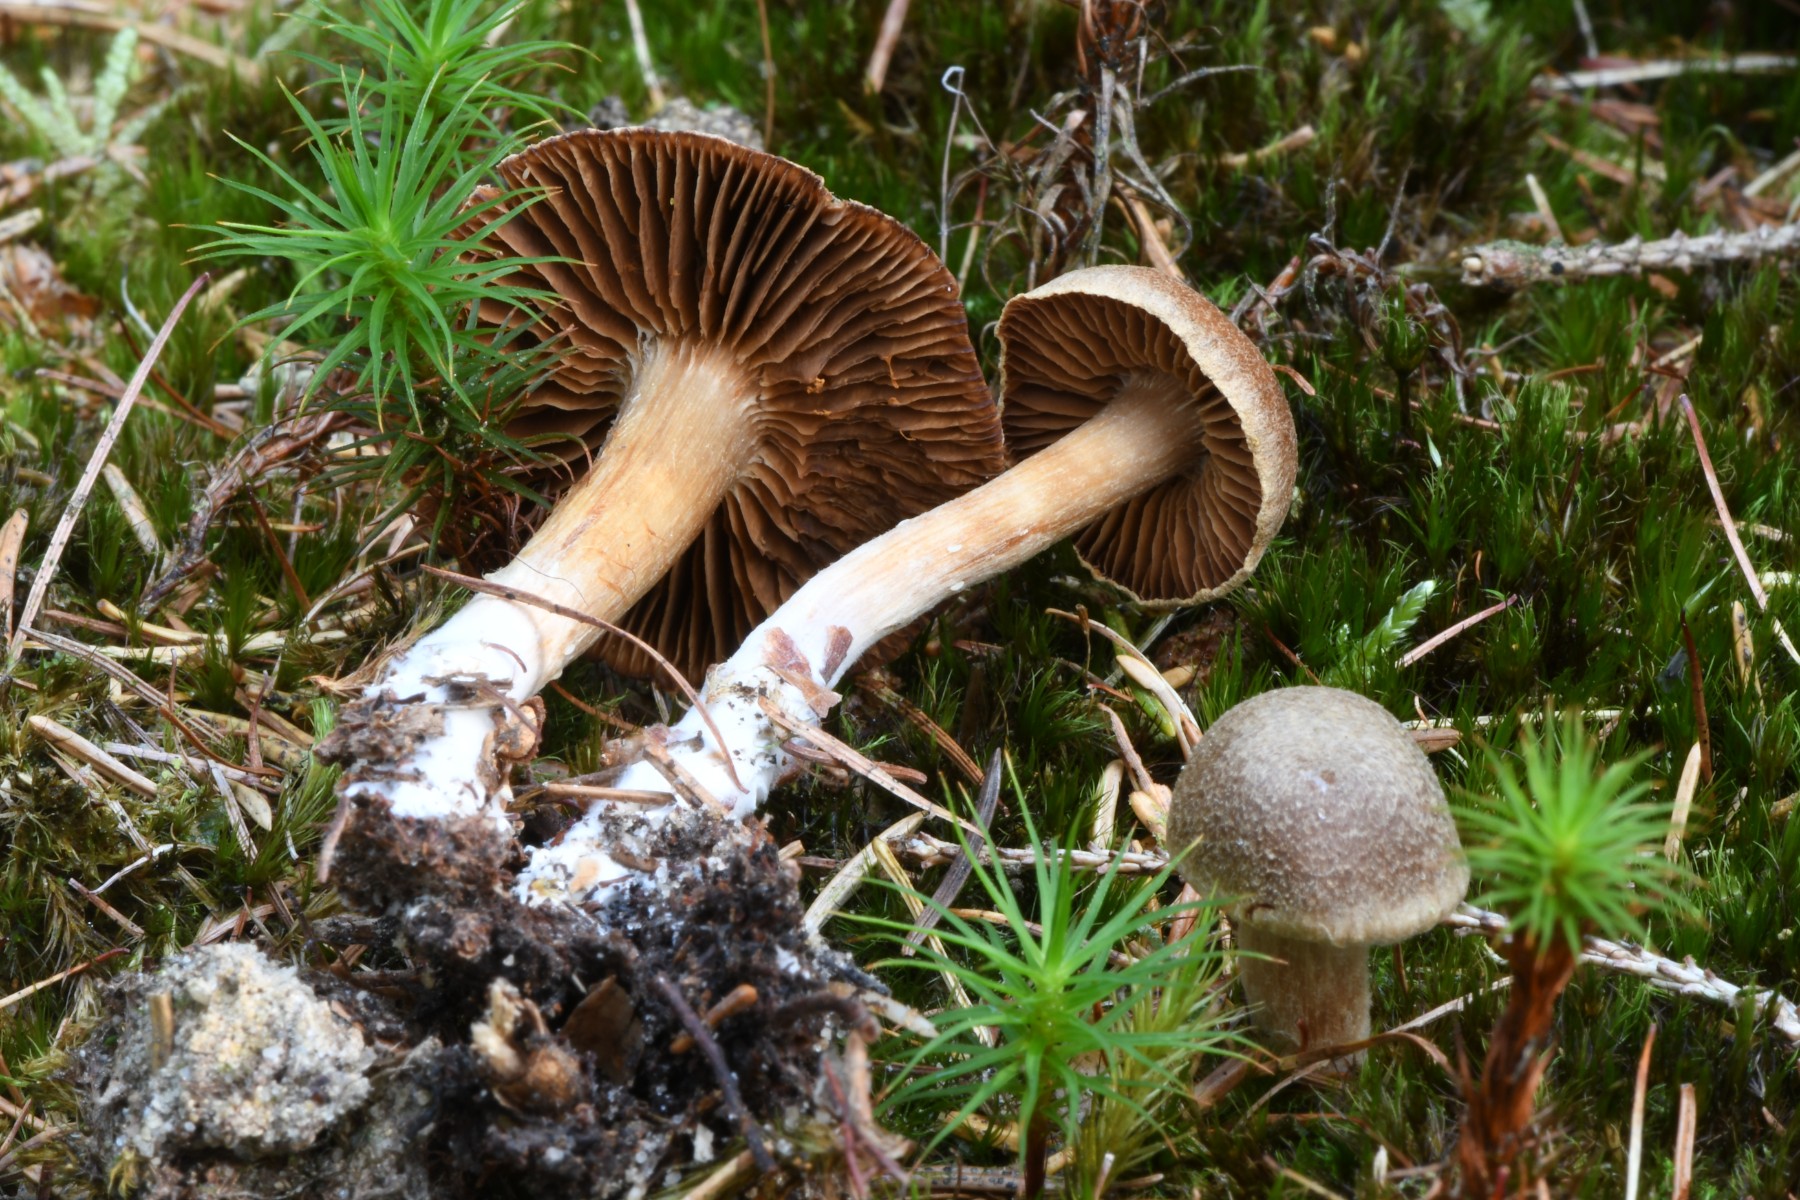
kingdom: Fungi
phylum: Basidiomycota
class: Agaricomycetes
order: Agaricales
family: Cortinariaceae
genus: Cortinarius
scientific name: Cortinarius pinisquamulosus
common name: finskællet slørhat
